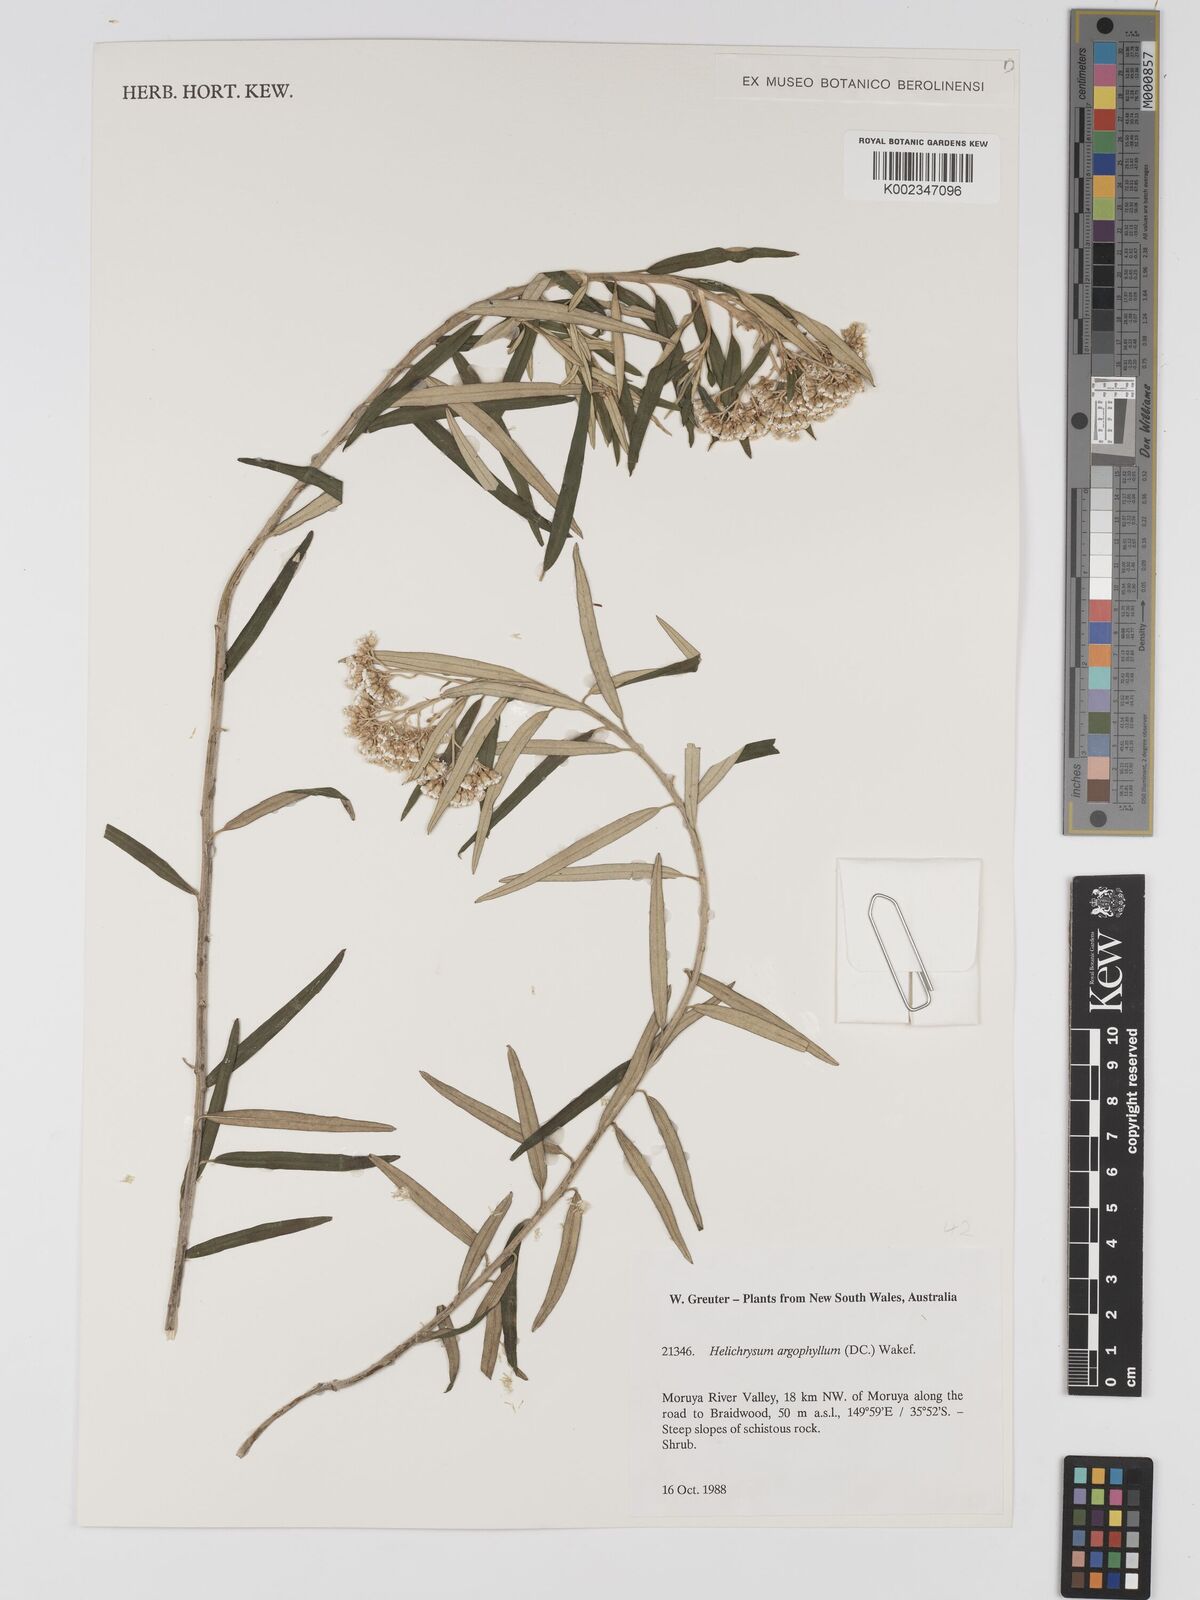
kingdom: Plantae
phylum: Tracheophyta
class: Magnoliopsida
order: Asterales
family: Asteraceae
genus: Ozothamnus
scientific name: Ozothamnus argophyllus
